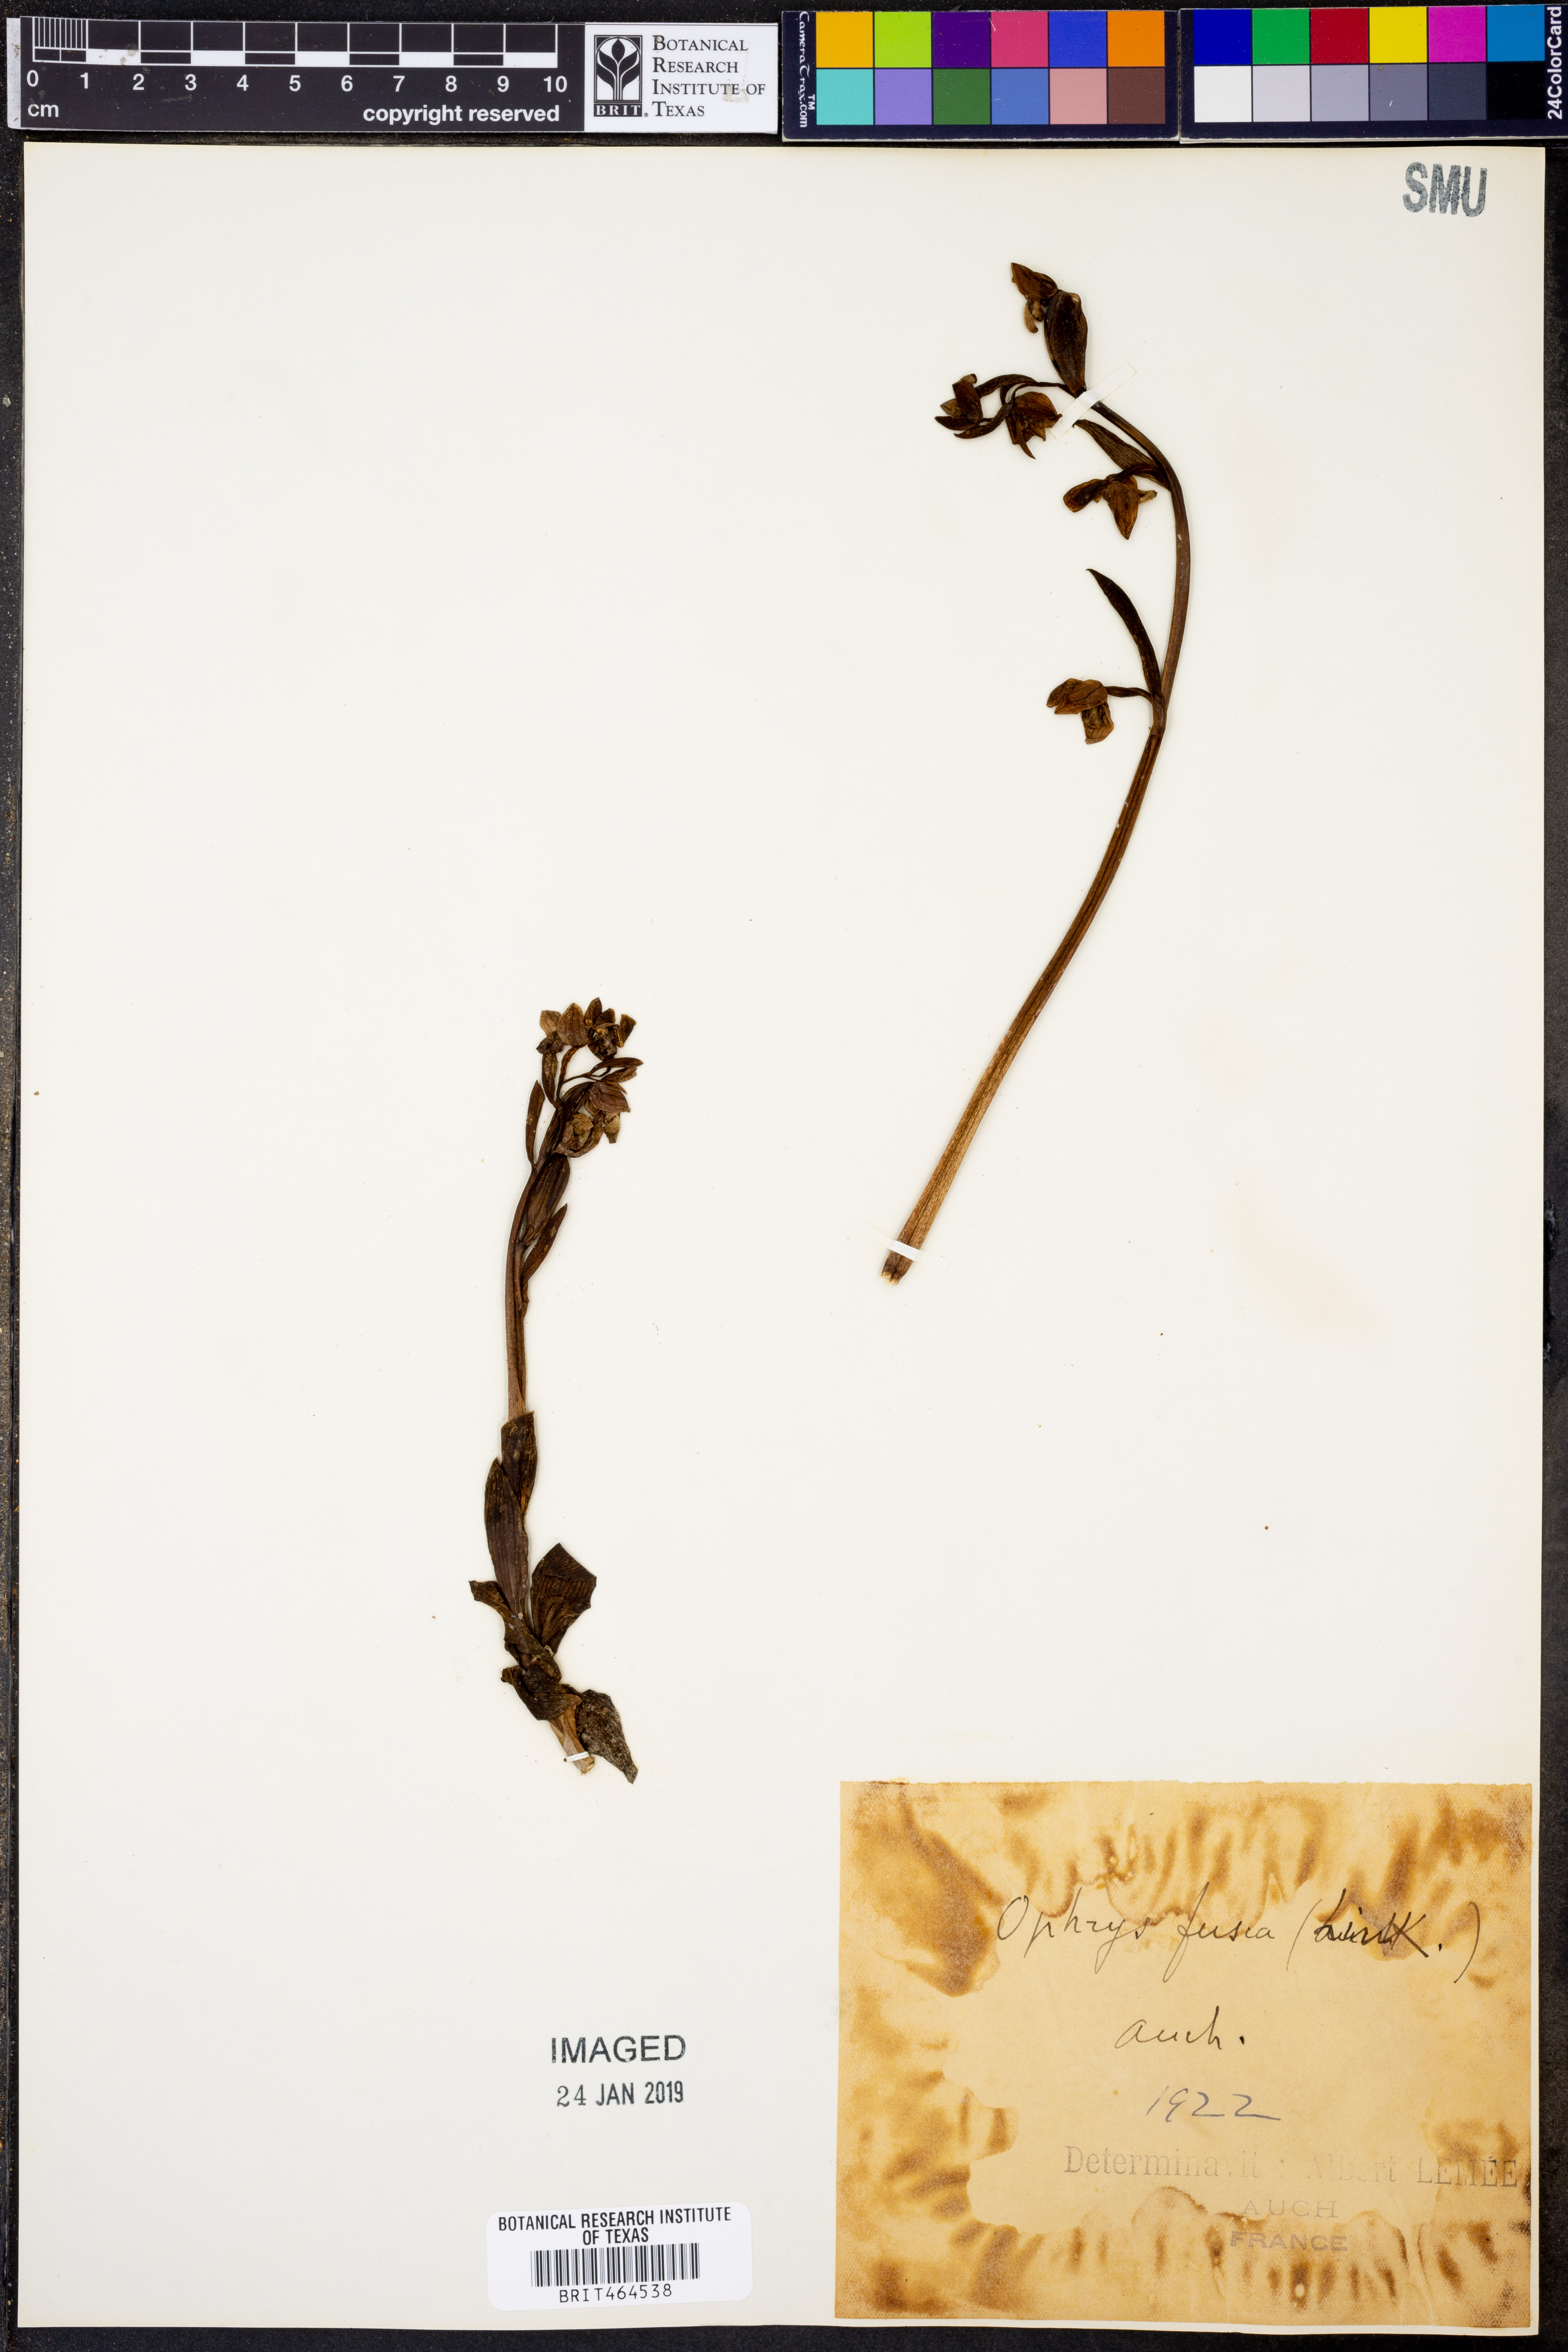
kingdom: Plantae
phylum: Tracheophyta
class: Liliopsida
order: Asparagales
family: Orchidaceae
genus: Ophrys
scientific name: Ophrys fusca
